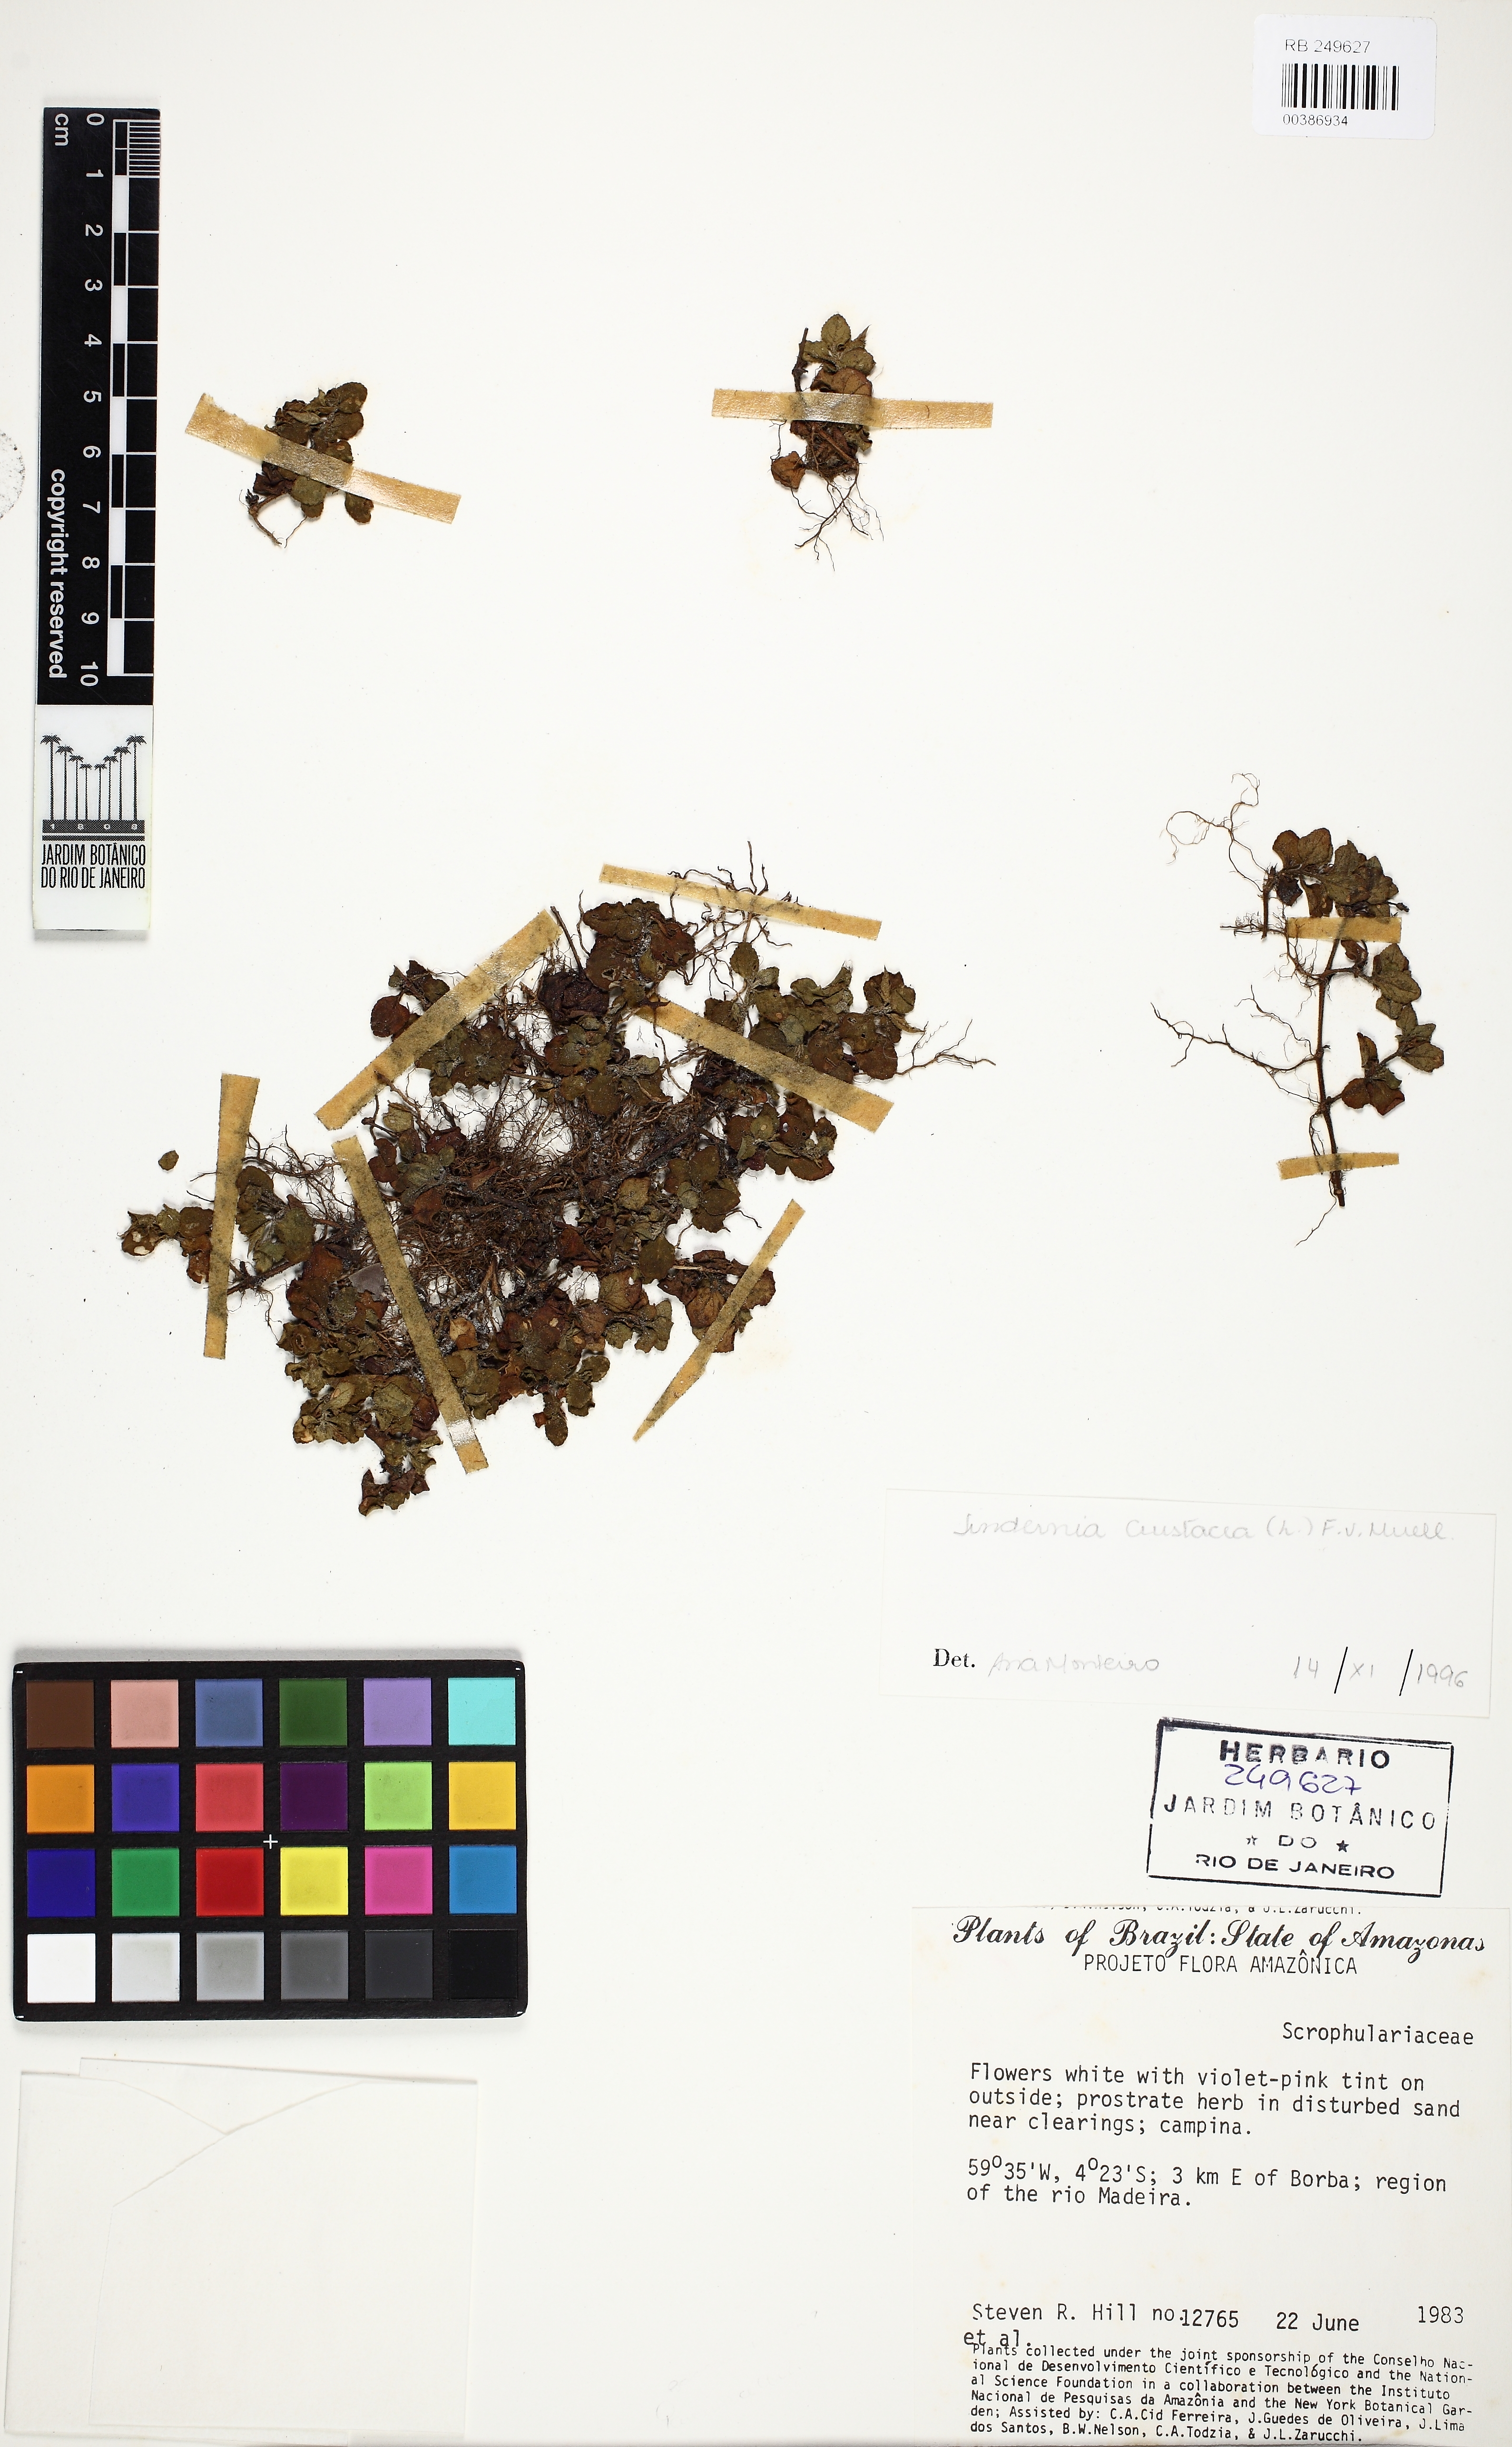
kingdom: Plantae
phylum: Tracheophyta
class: Magnoliopsida
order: Lamiales
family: Linderniaceae
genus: Torenia
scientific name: Torenia crustacea
